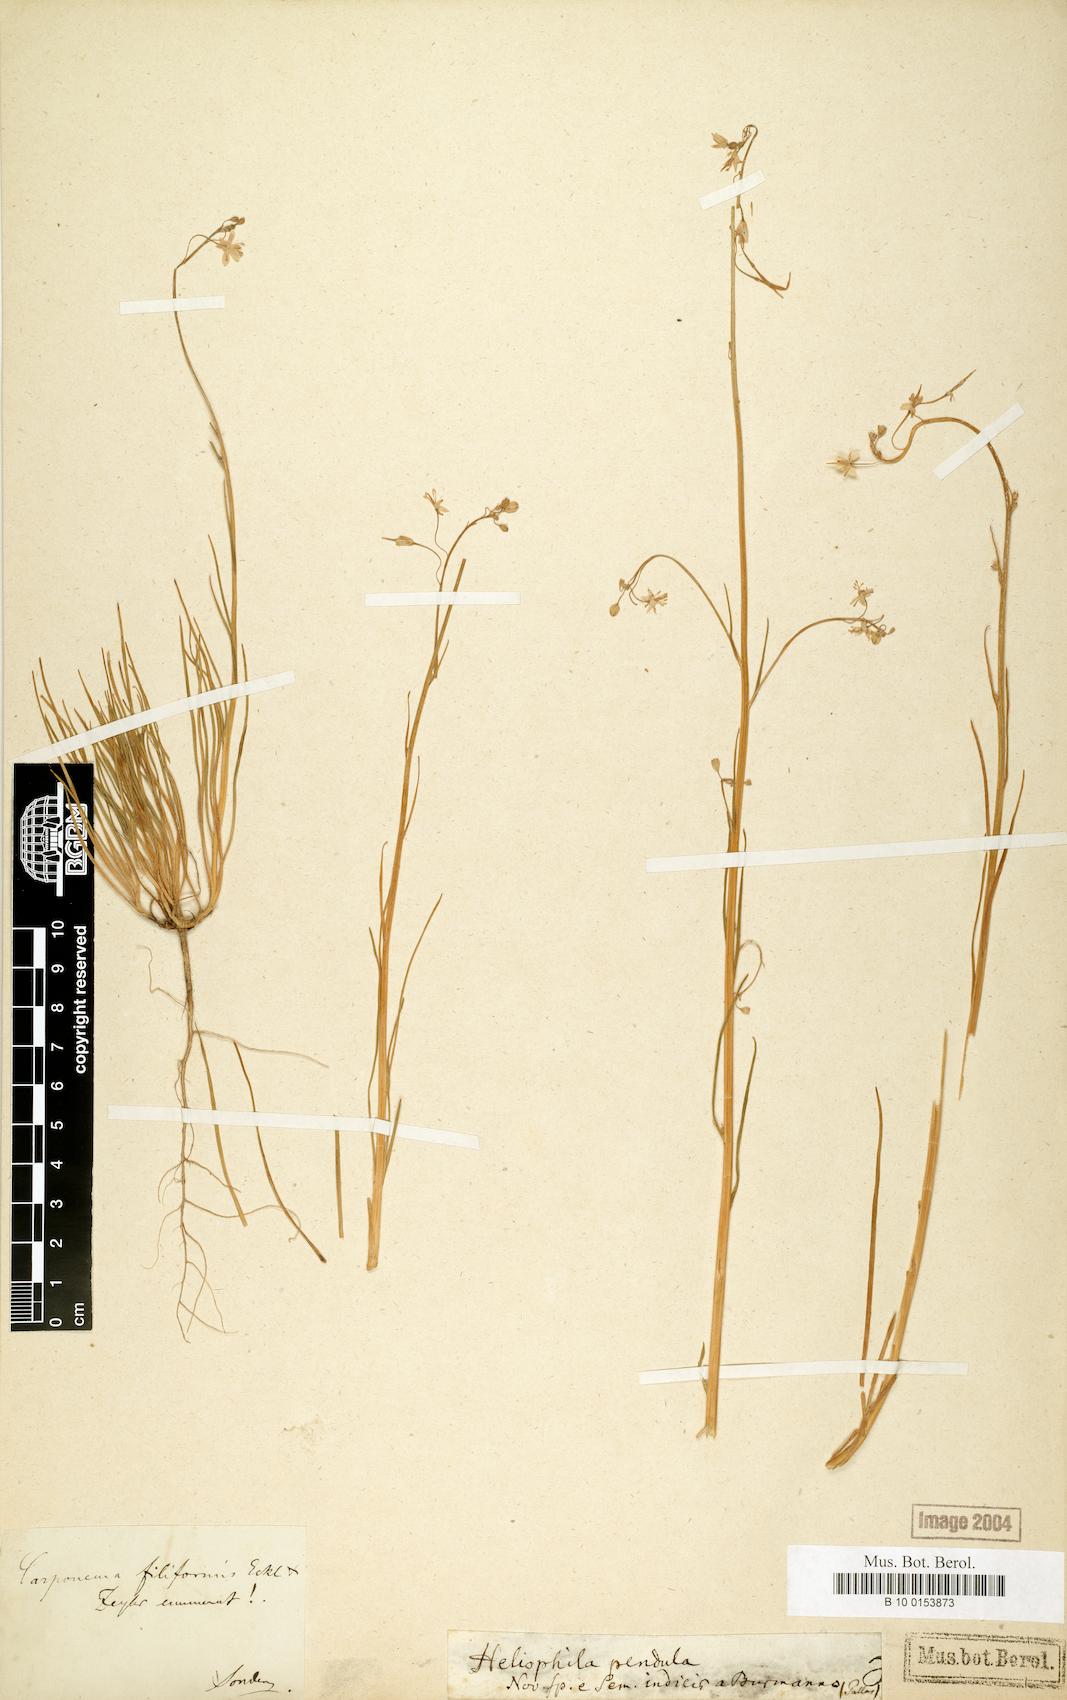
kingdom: Plantae
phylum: Tracheophyta
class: Magnoliopsida
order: Brassicales
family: Brassicaceae
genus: Heliophila
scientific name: Heliophila coronopifolia
